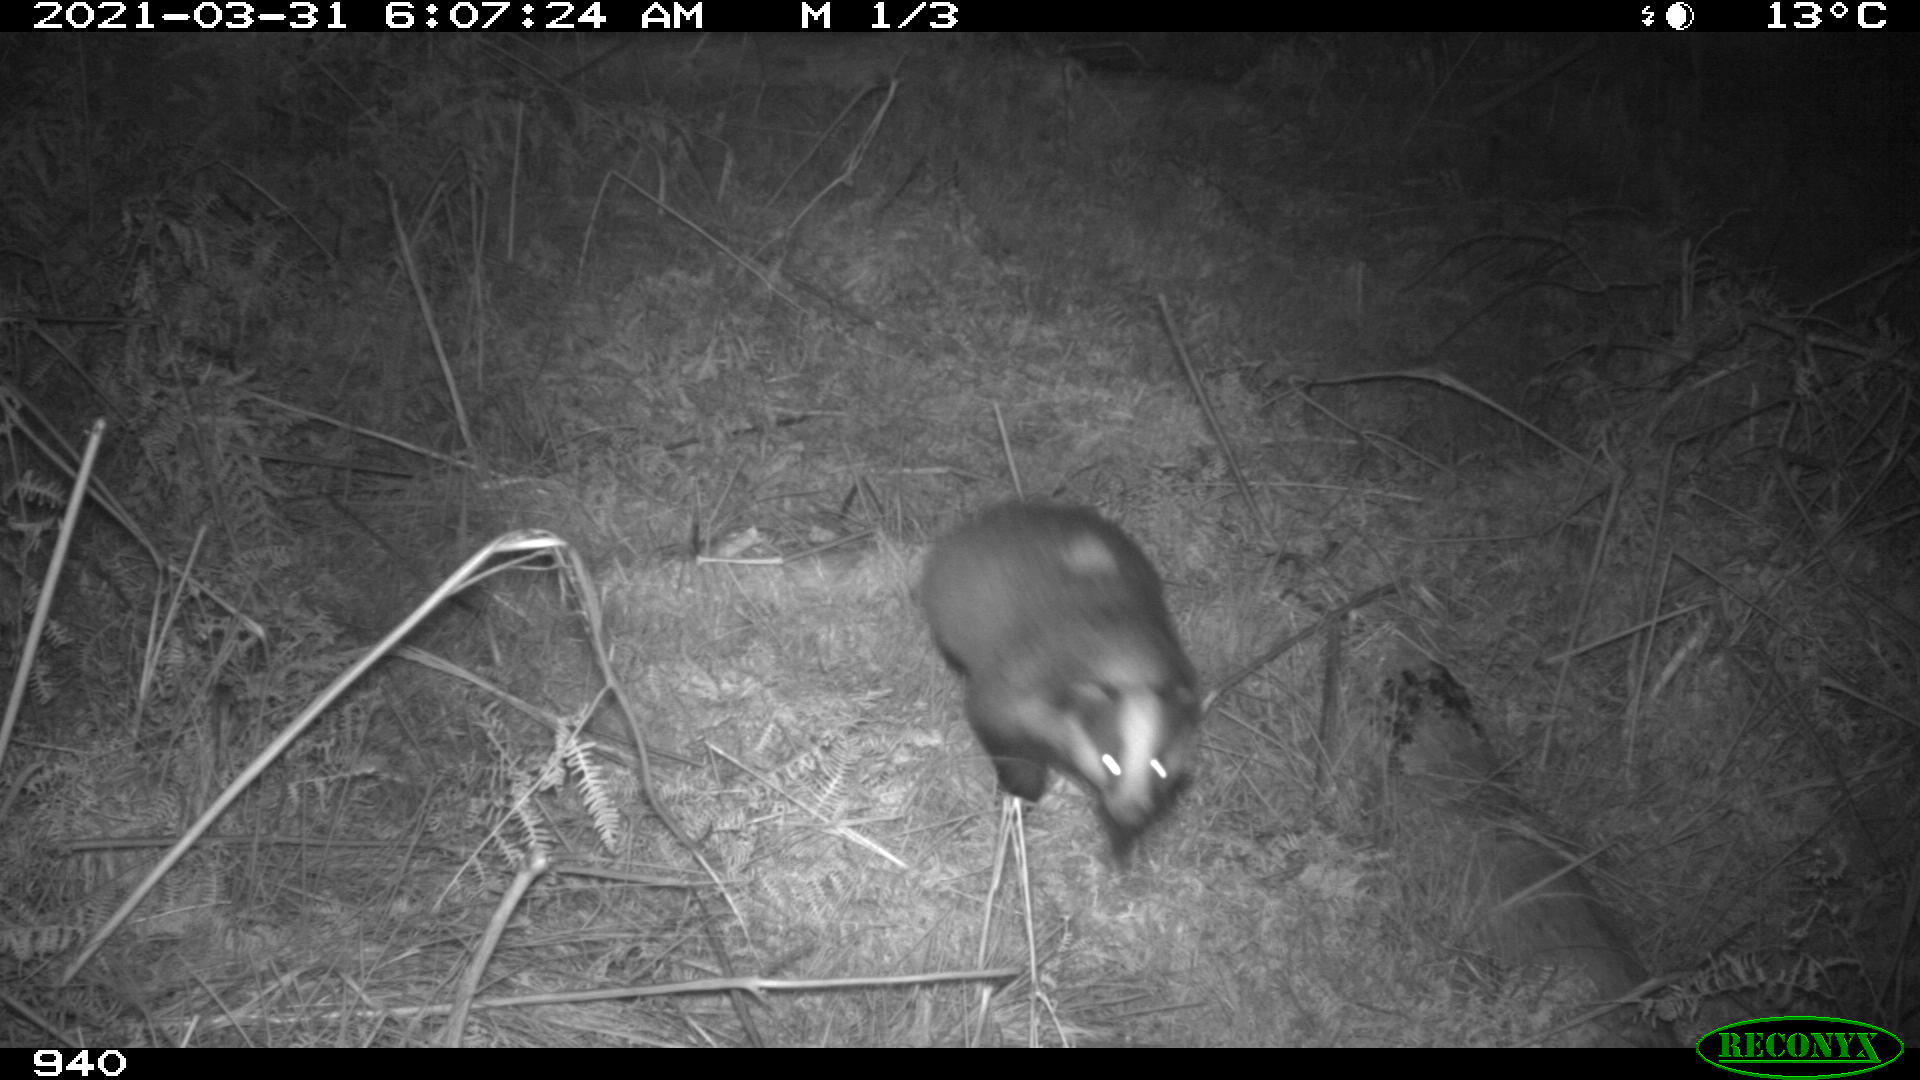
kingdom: Animalia
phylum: Chordata
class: Mammalia
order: Carnivora
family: Mustelidae
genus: Meles
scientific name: Meles meles
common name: Eurasian badger
